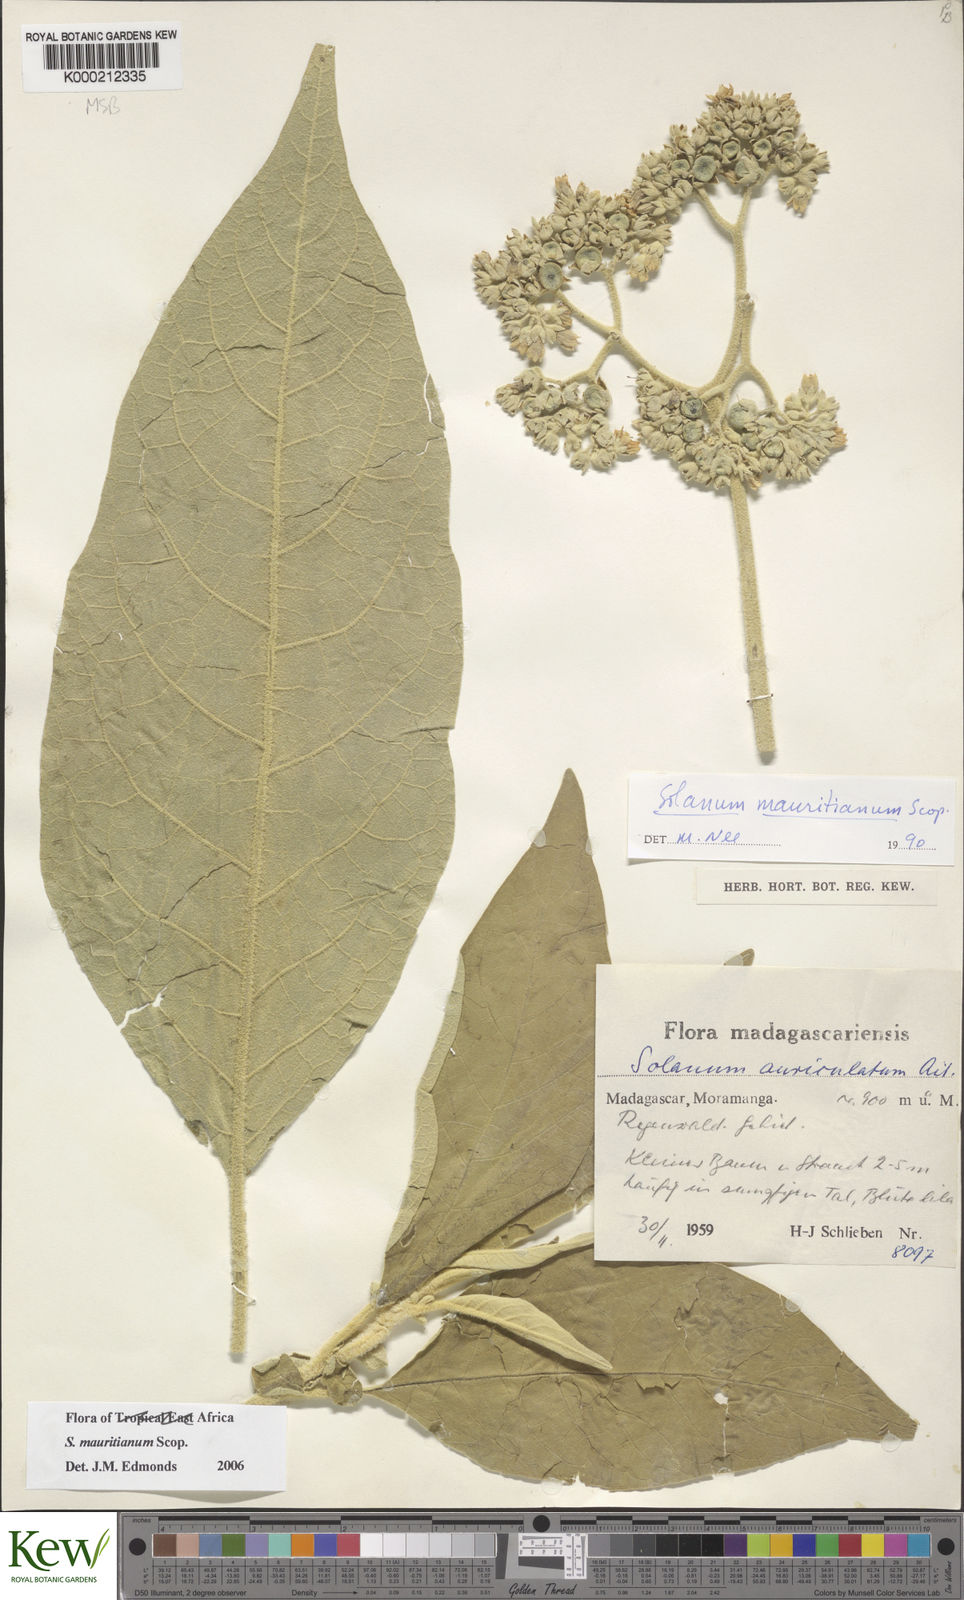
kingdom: Plantae
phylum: Tracheophyta
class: Magnoliopsida
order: Solanales
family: Solanaceae
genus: Solanum
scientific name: Solanum mauritianum
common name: Earleaf nightshade
